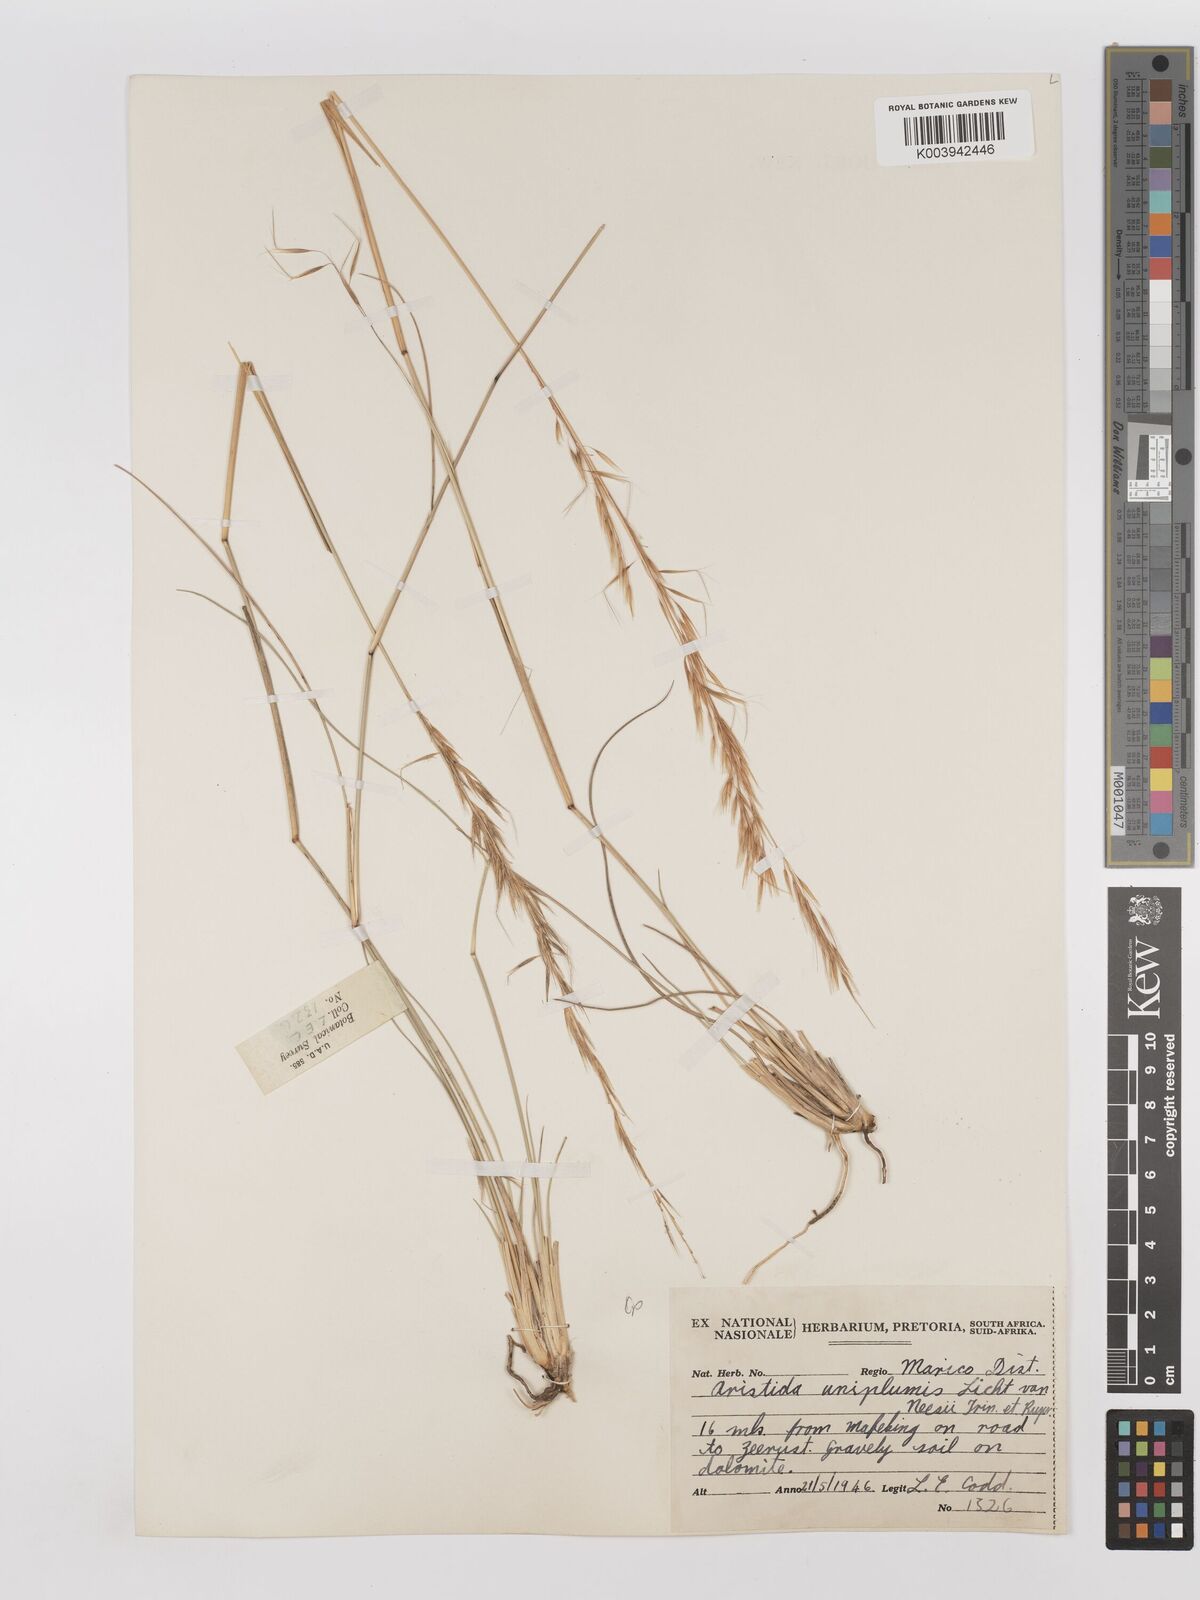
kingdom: Plantae
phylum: Tracheophyta
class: Liliopsida
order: Poales
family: Poaceae
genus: Stipagrostis
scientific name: Stipagrostis uniplumis
